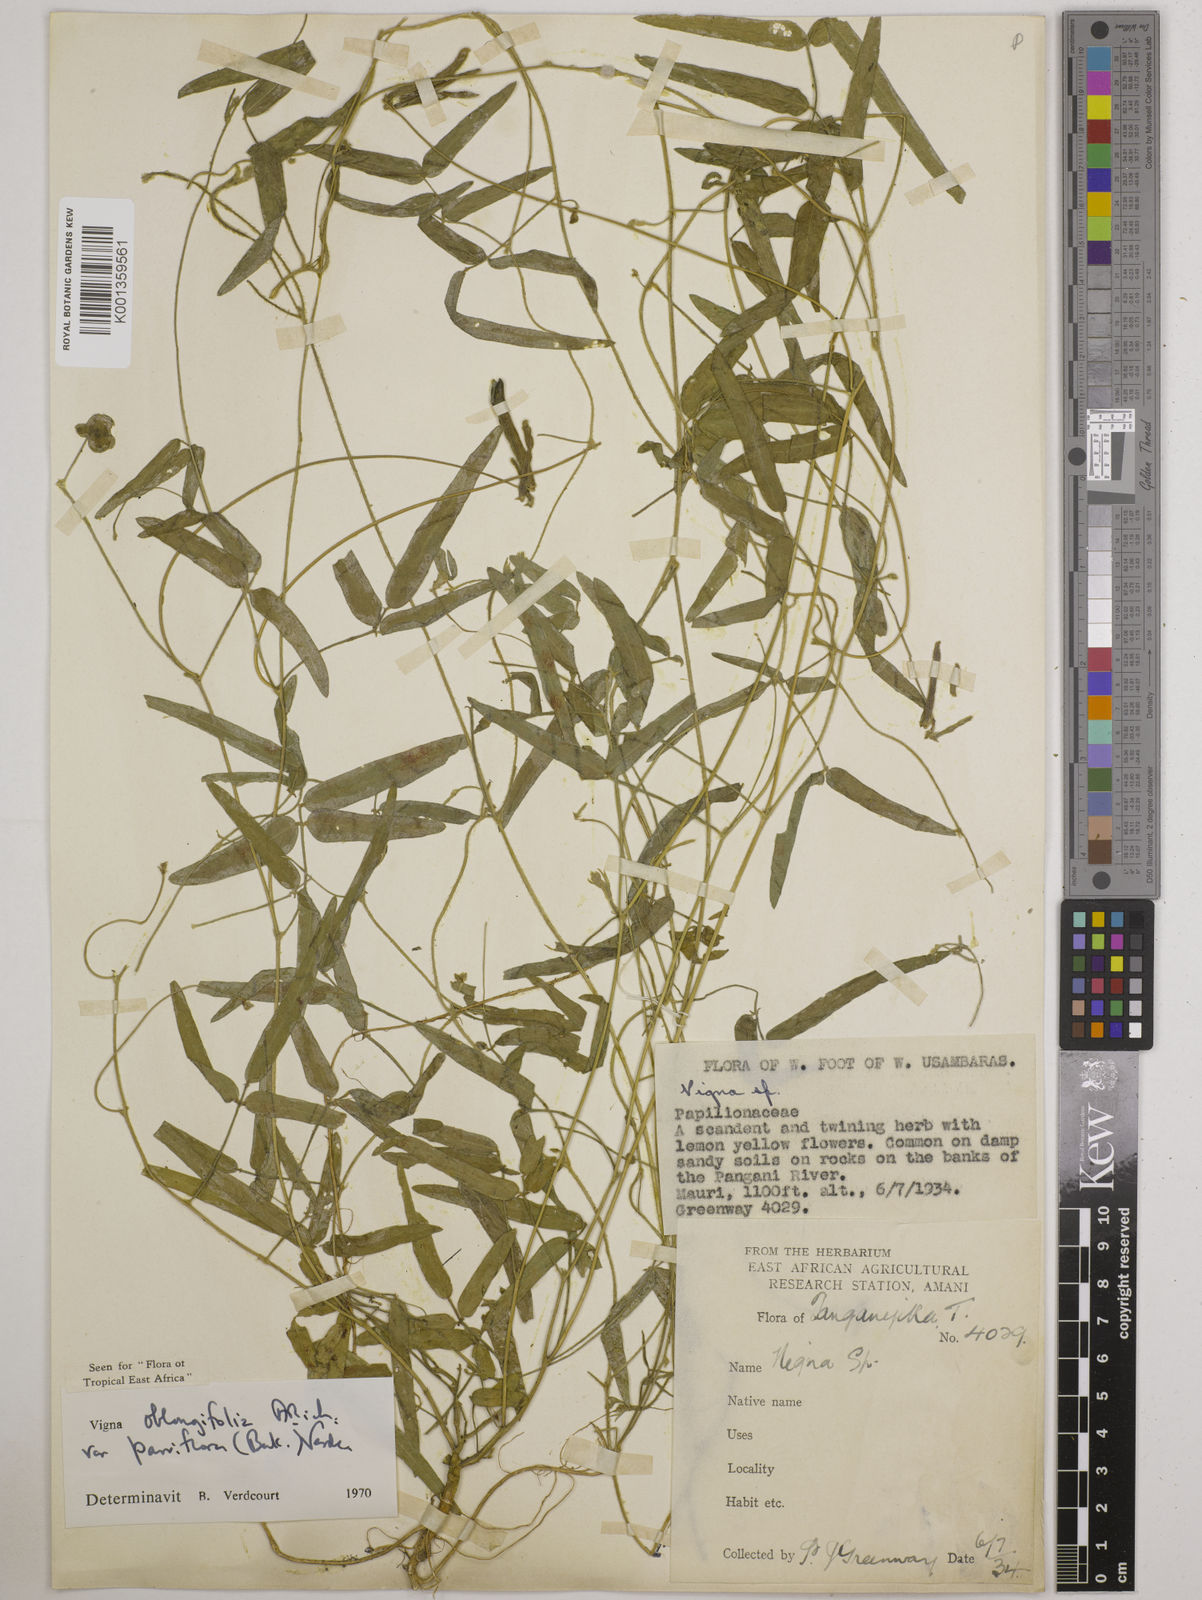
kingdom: Plantae
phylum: Tracheophyta
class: Magnoliopsida
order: Fabales
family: Fabaceae
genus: Vigna
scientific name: Vigna
